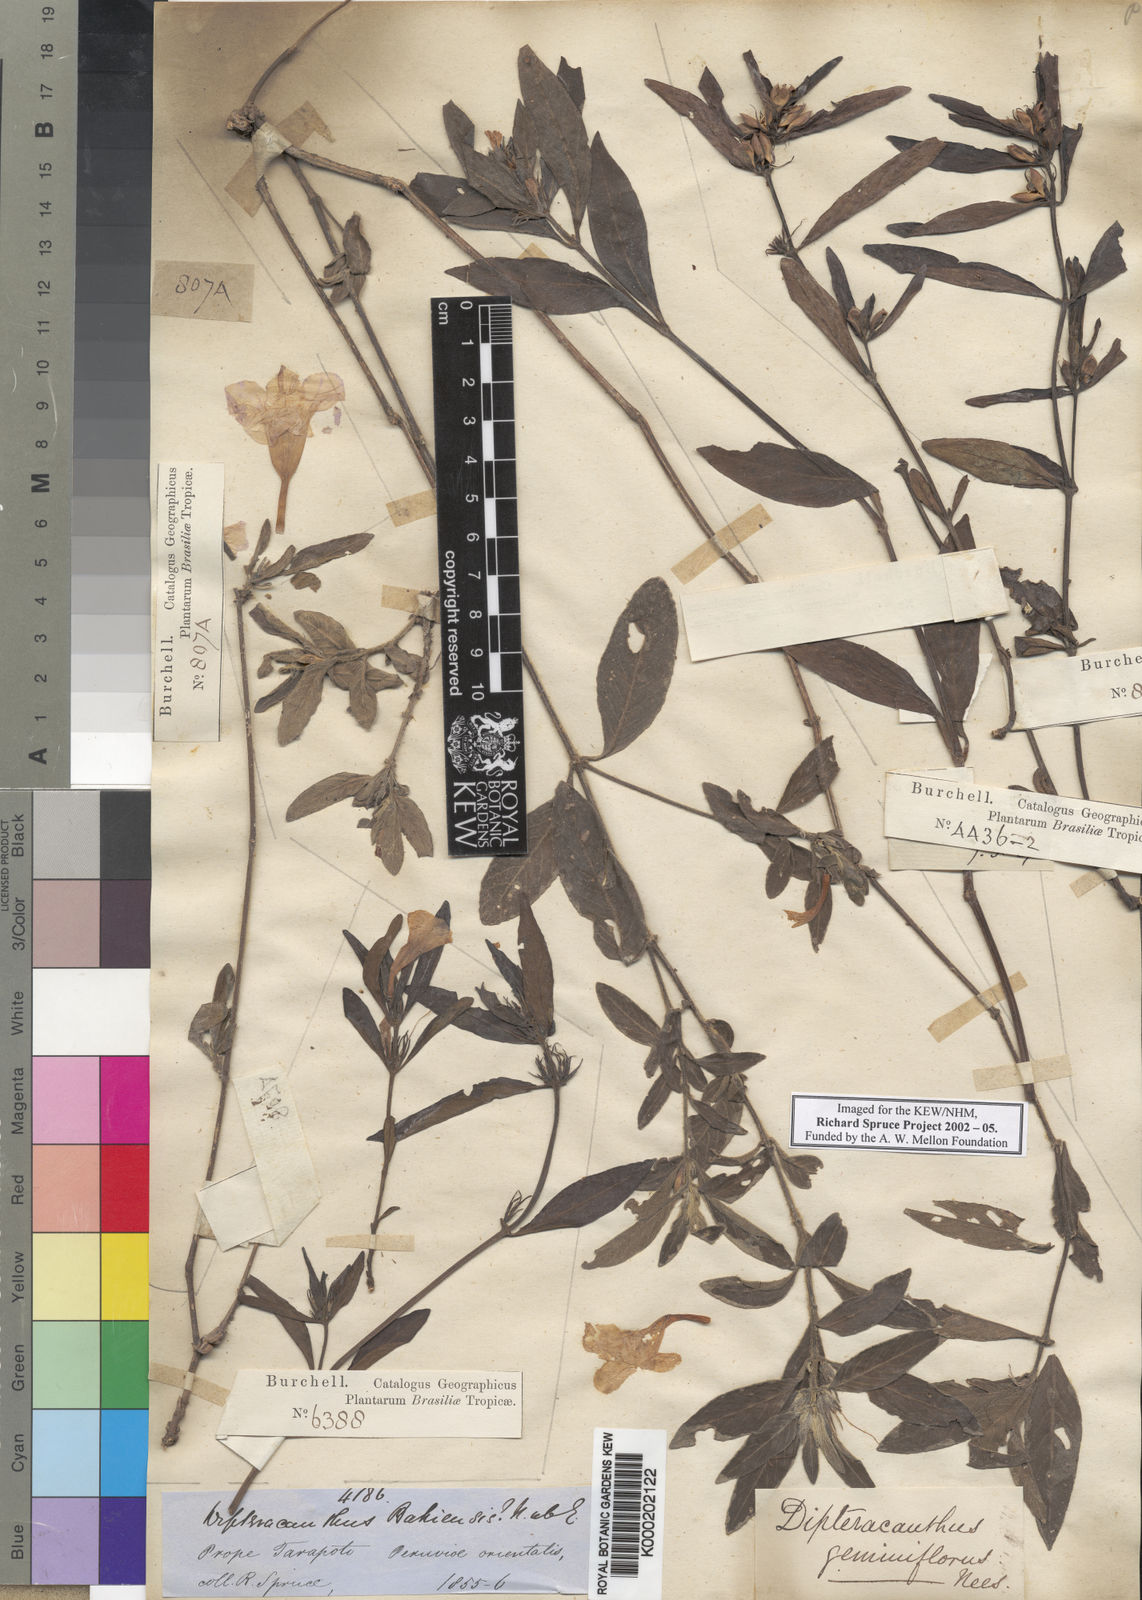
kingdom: Plantae
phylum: Tracheophyta
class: Magnoliopsida
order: Lamiales
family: Acanthaceae
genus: Ruellia
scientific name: Ruellia geminiflora
